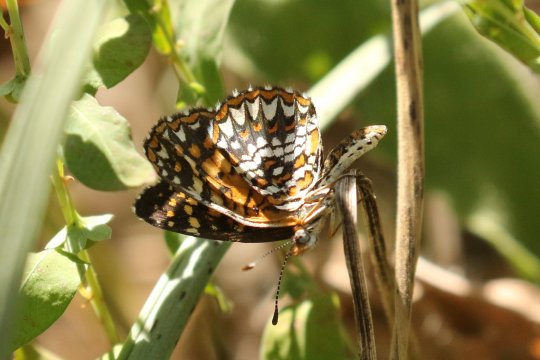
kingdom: Animalia
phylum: Arthropoda
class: Insecta
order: Lepidoptera
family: Nymphalidae
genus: Texola
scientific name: Texola elada
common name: Elada Checkerspot
